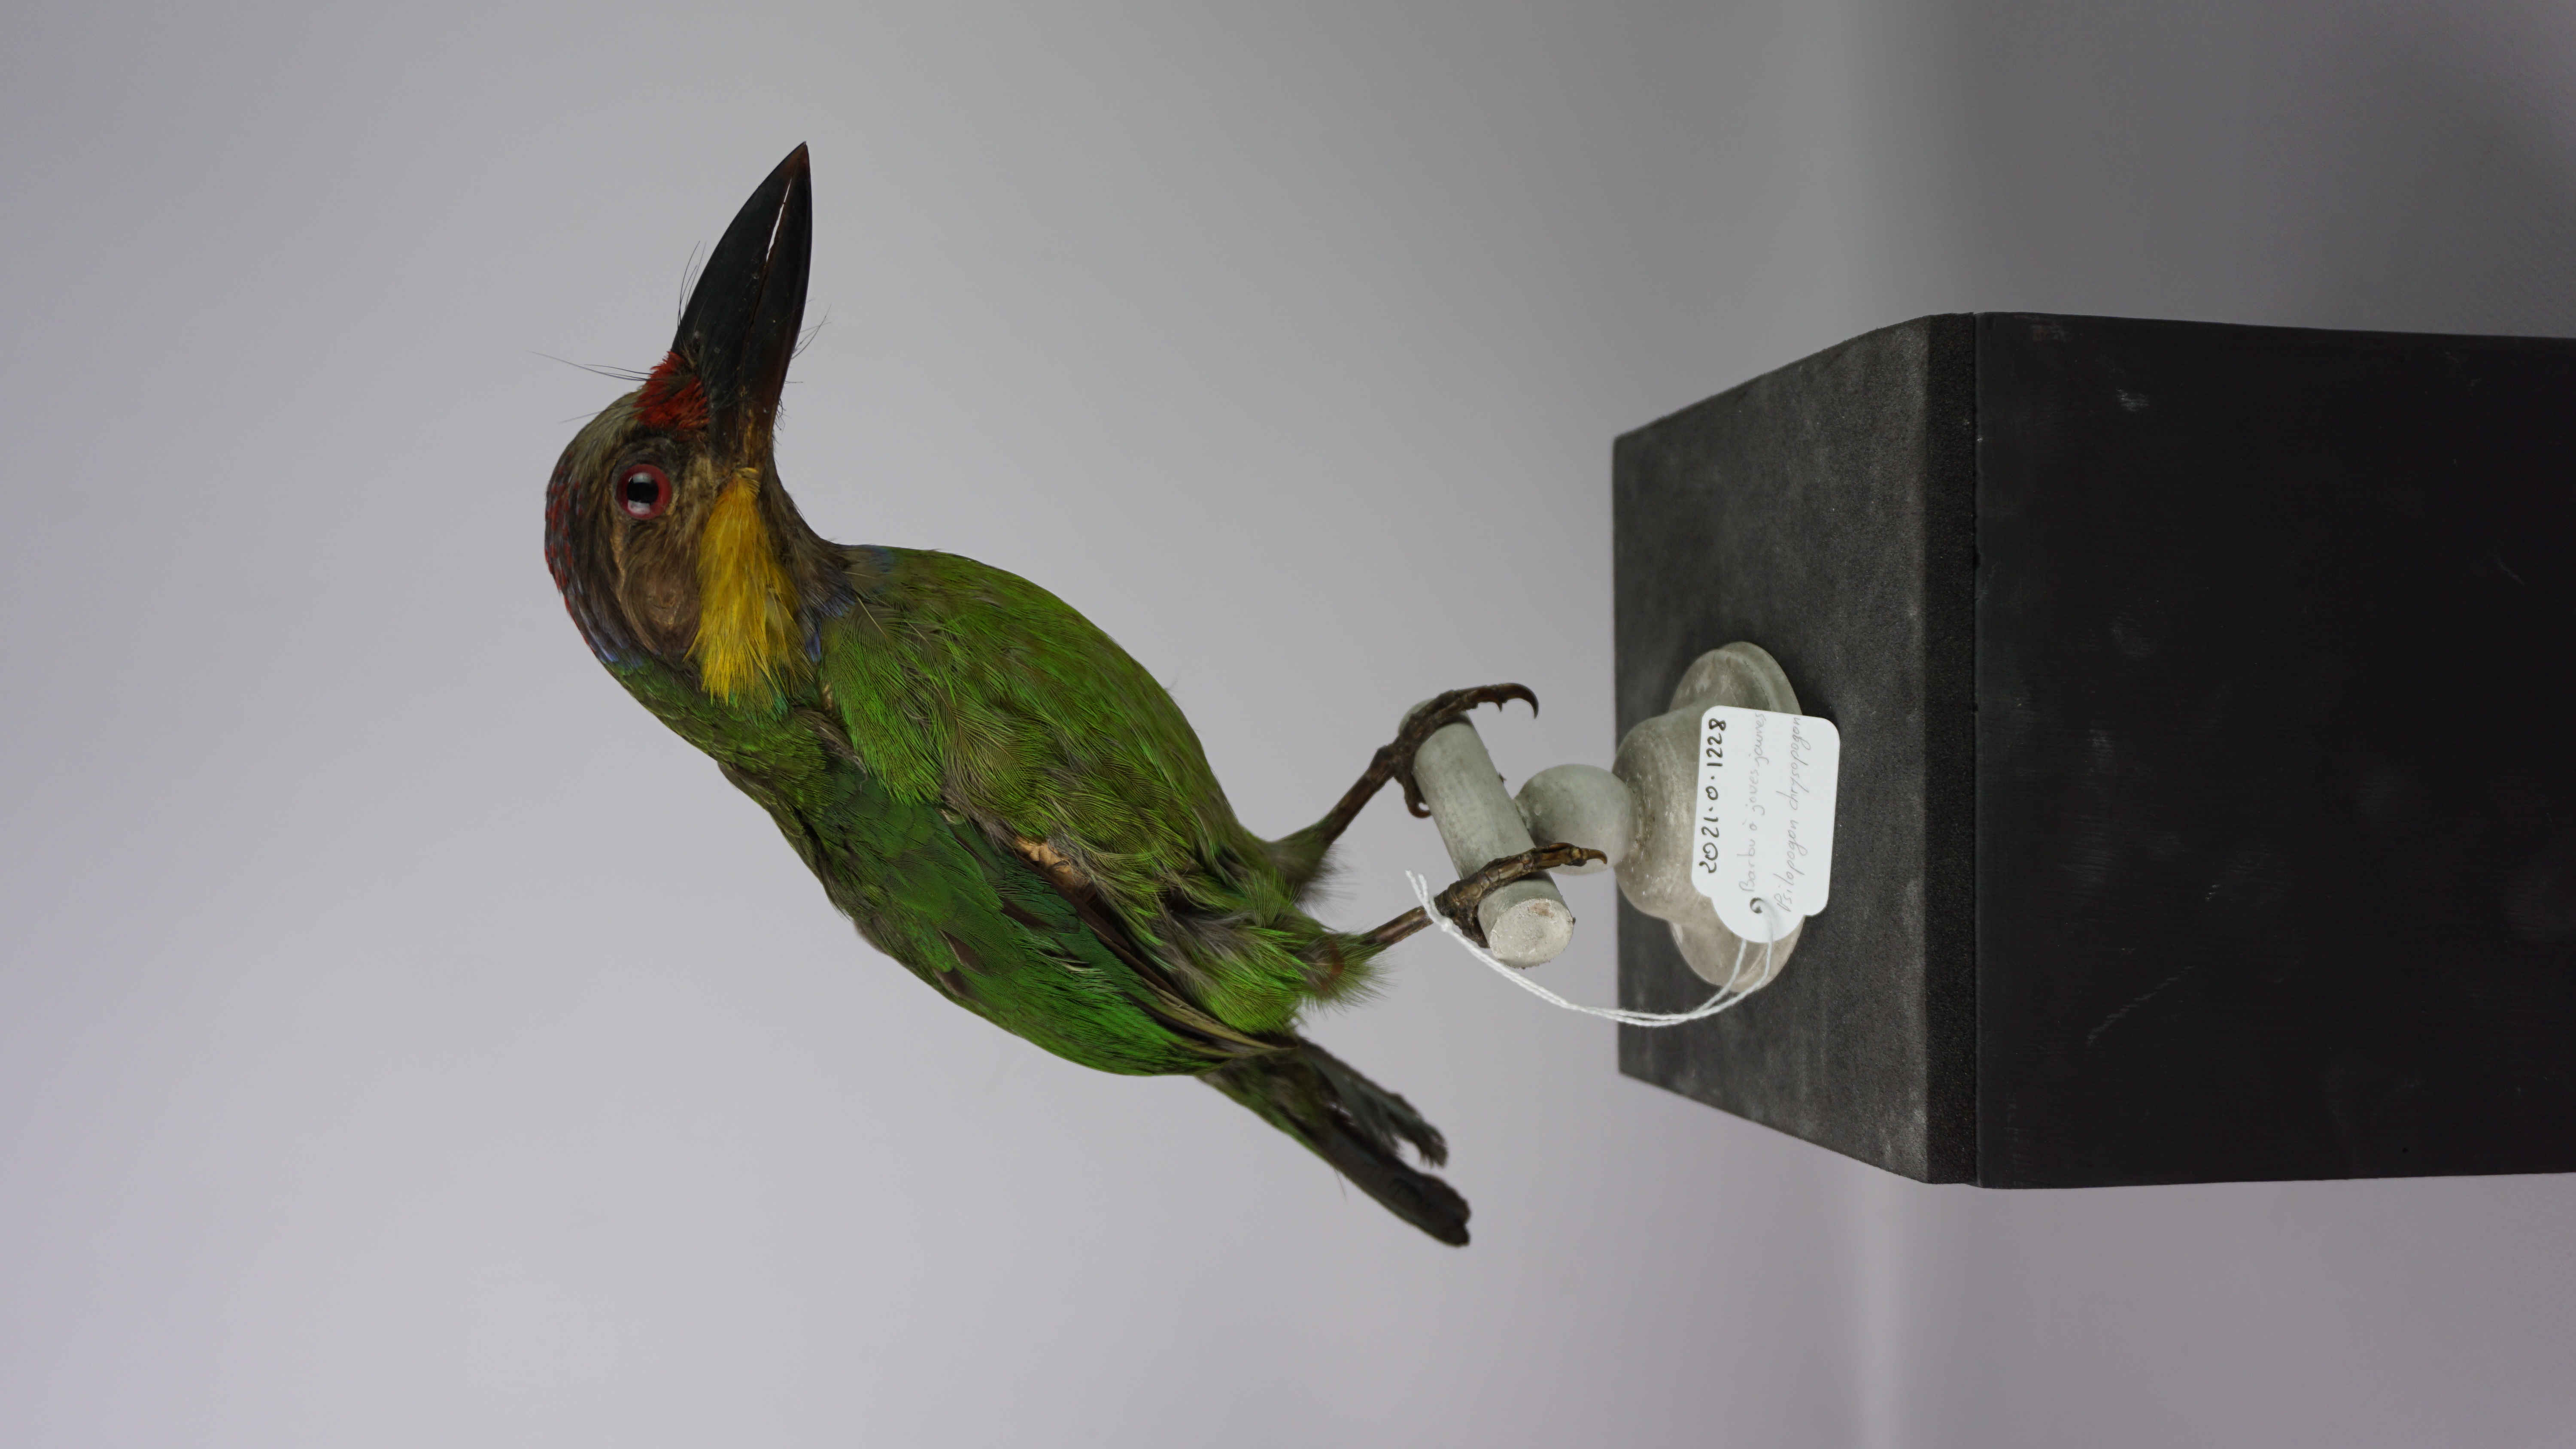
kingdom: Animalia
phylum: Chordata
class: Aves
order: Piciformes
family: Megalaimidae
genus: Psilopogon
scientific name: Psilopogon chrysopogon
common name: Golden-whiskered barbet
